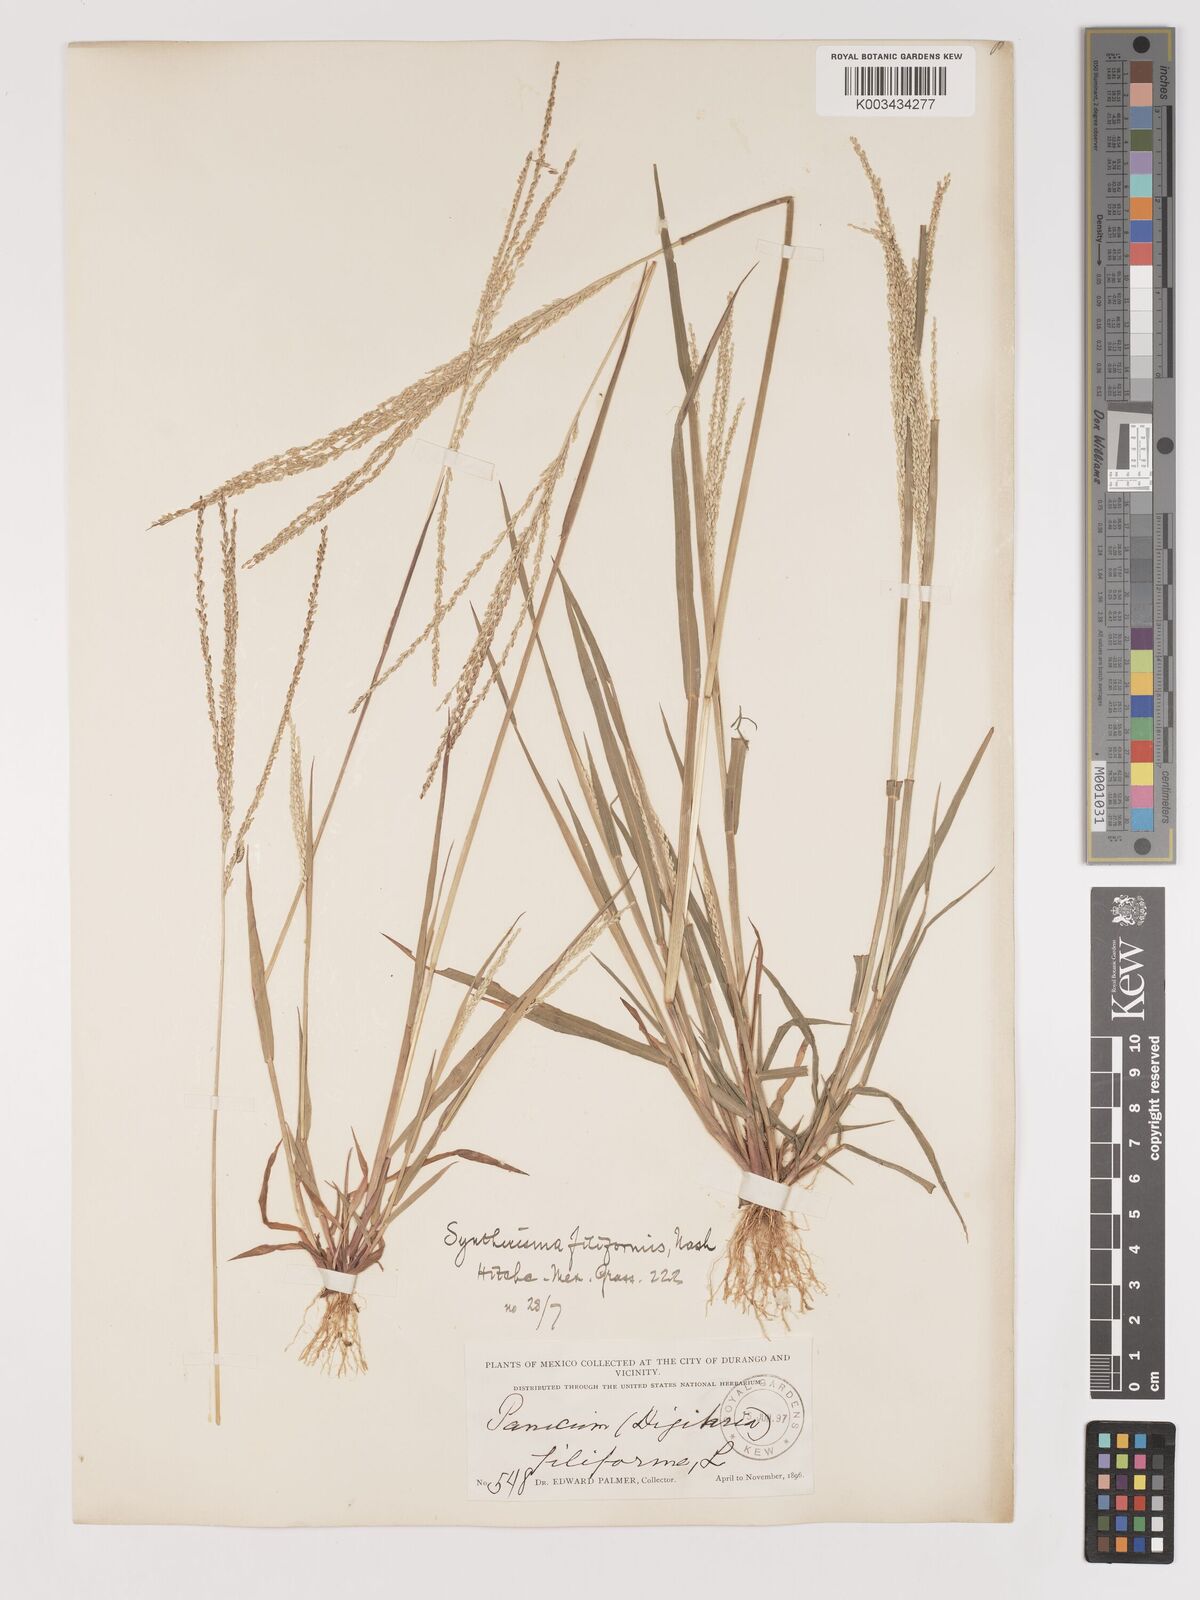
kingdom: Plantae
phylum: Tracheophyta
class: Liliopsida
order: Poales
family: Poaceae
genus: Digitaria
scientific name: Digitaria filiformis
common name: Slender crabgrass
